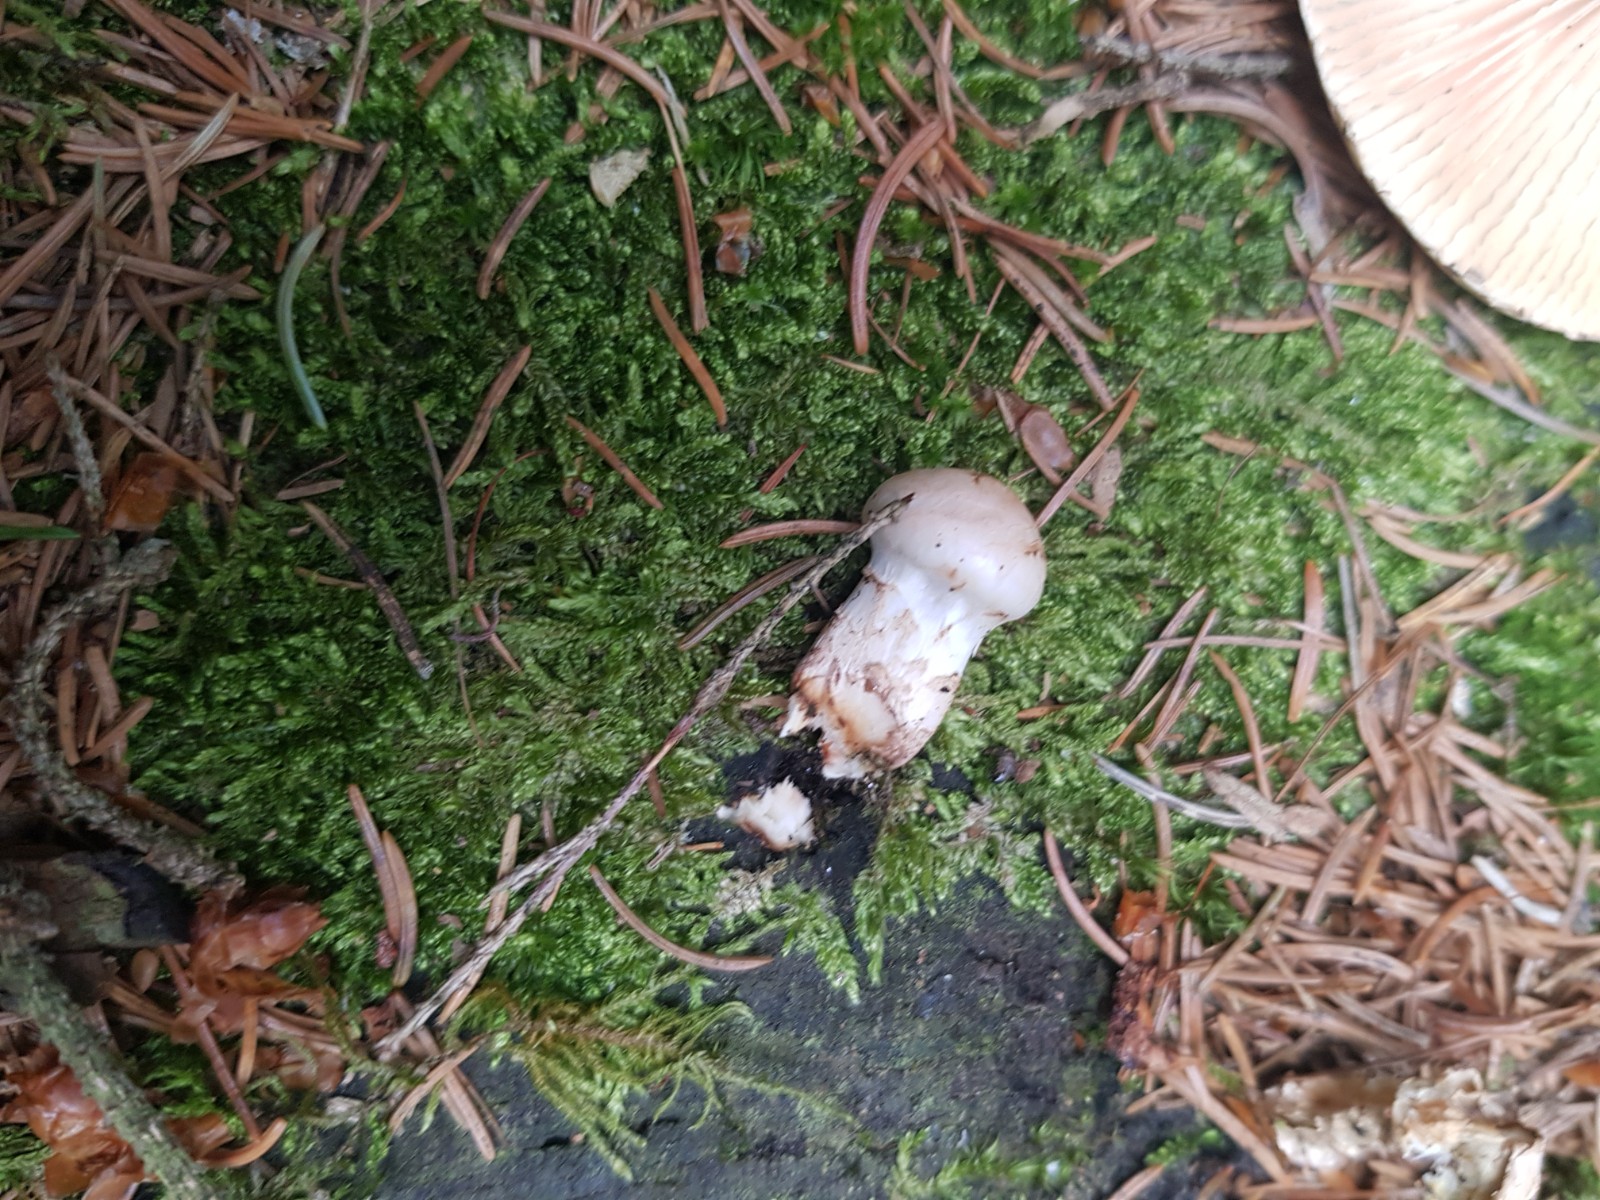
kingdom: Fungi
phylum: Basidiomycota
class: Agaricomycetes
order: Polyporales
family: Polyporaceae
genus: Neolentinus
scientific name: Neolentinus
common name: sejhat
